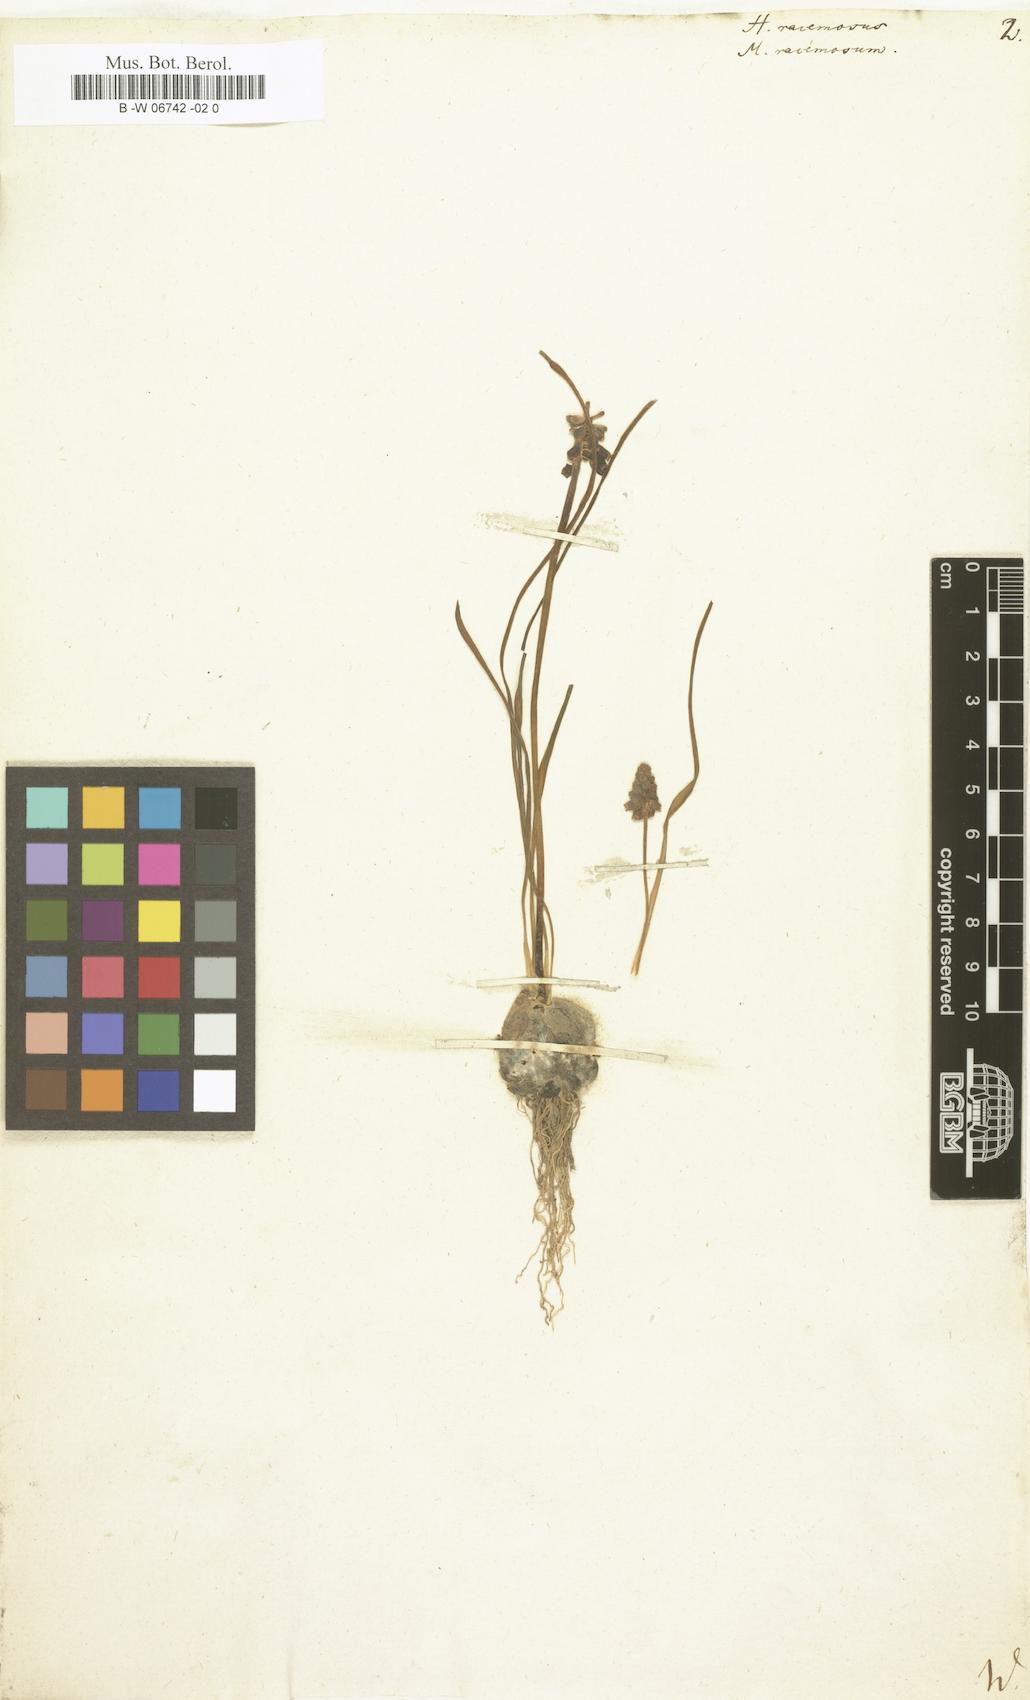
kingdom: Plantae
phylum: Tracheophyta
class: Liliopsida
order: Asparagales
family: Asparagaceae
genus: Muscari
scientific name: Muscari neglectum
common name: Grape-hyacinth
